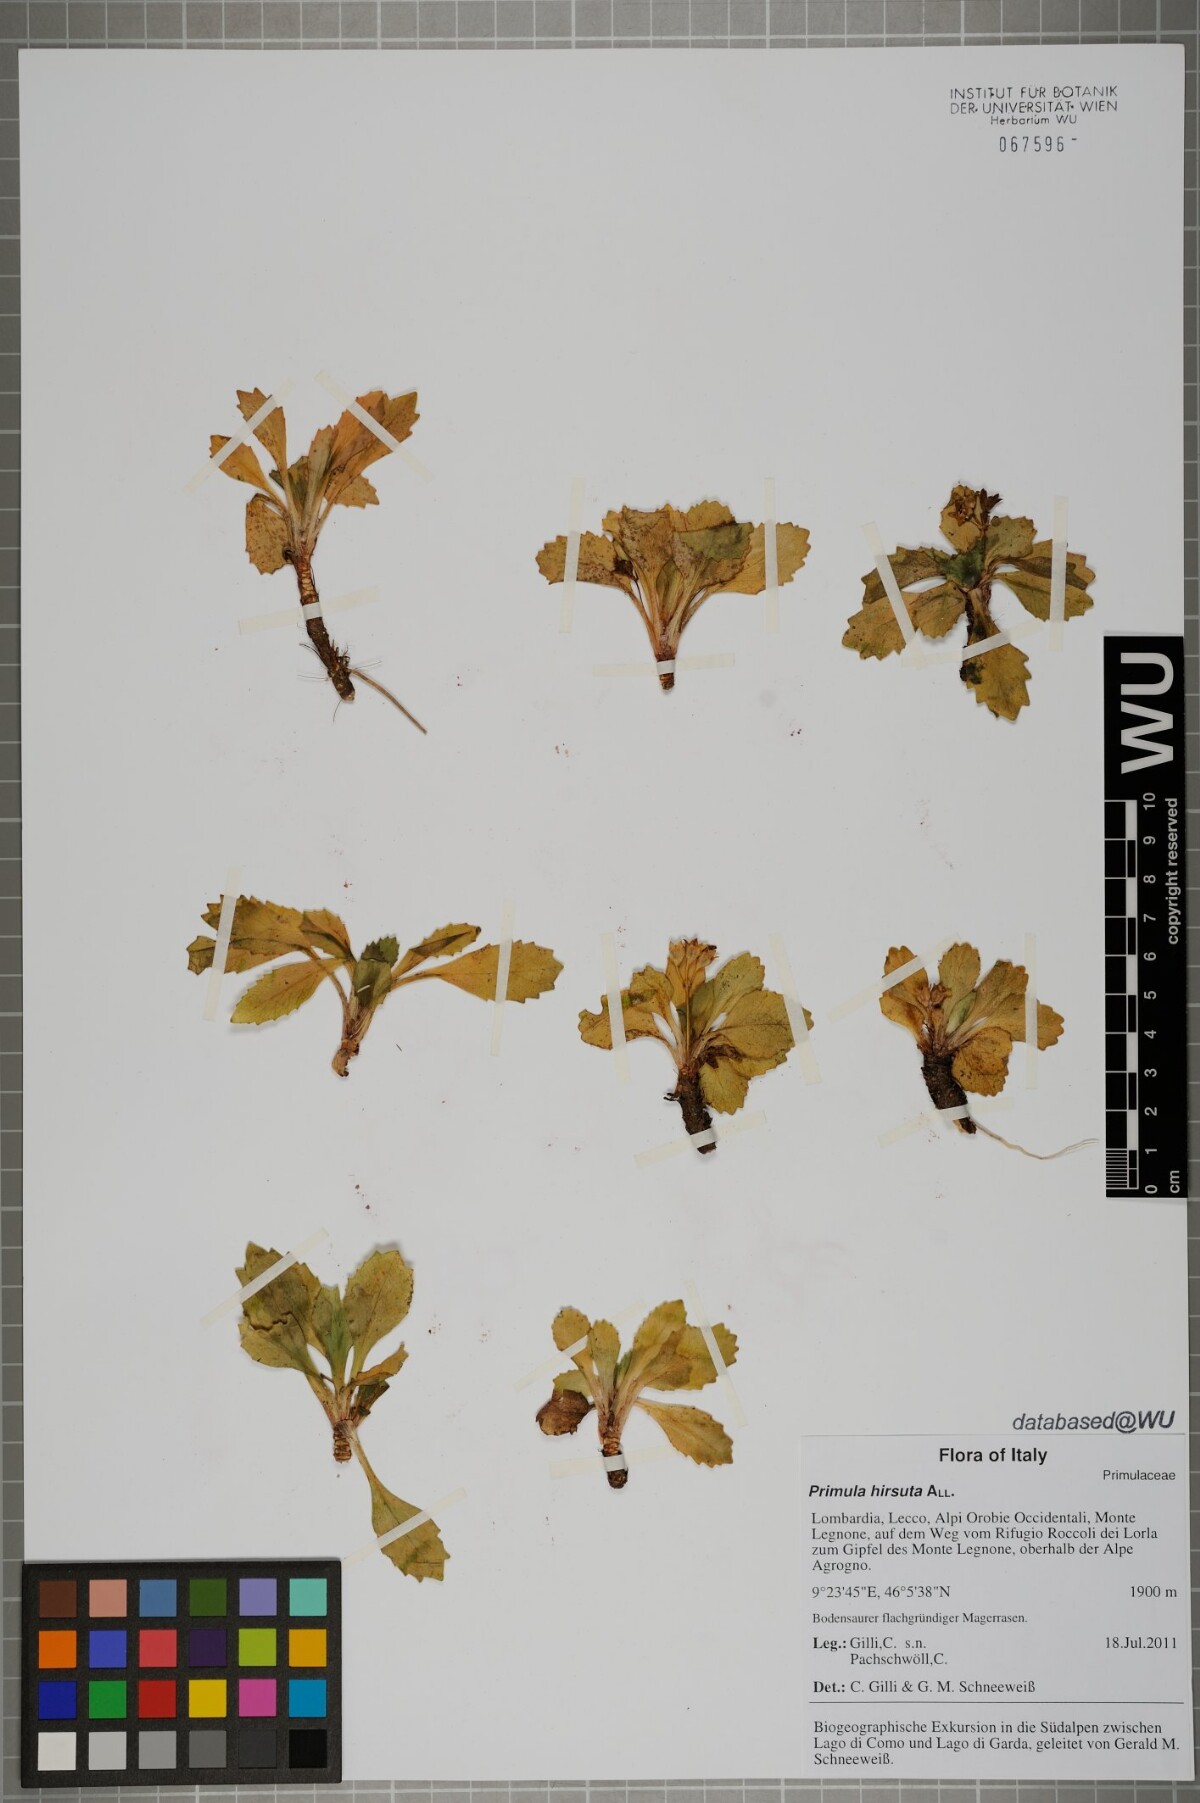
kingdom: Plantae
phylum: Tracheophyta
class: Magnoliopsida
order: Ericales
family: Primulaceae
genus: Primula
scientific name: Primula hirsuta
